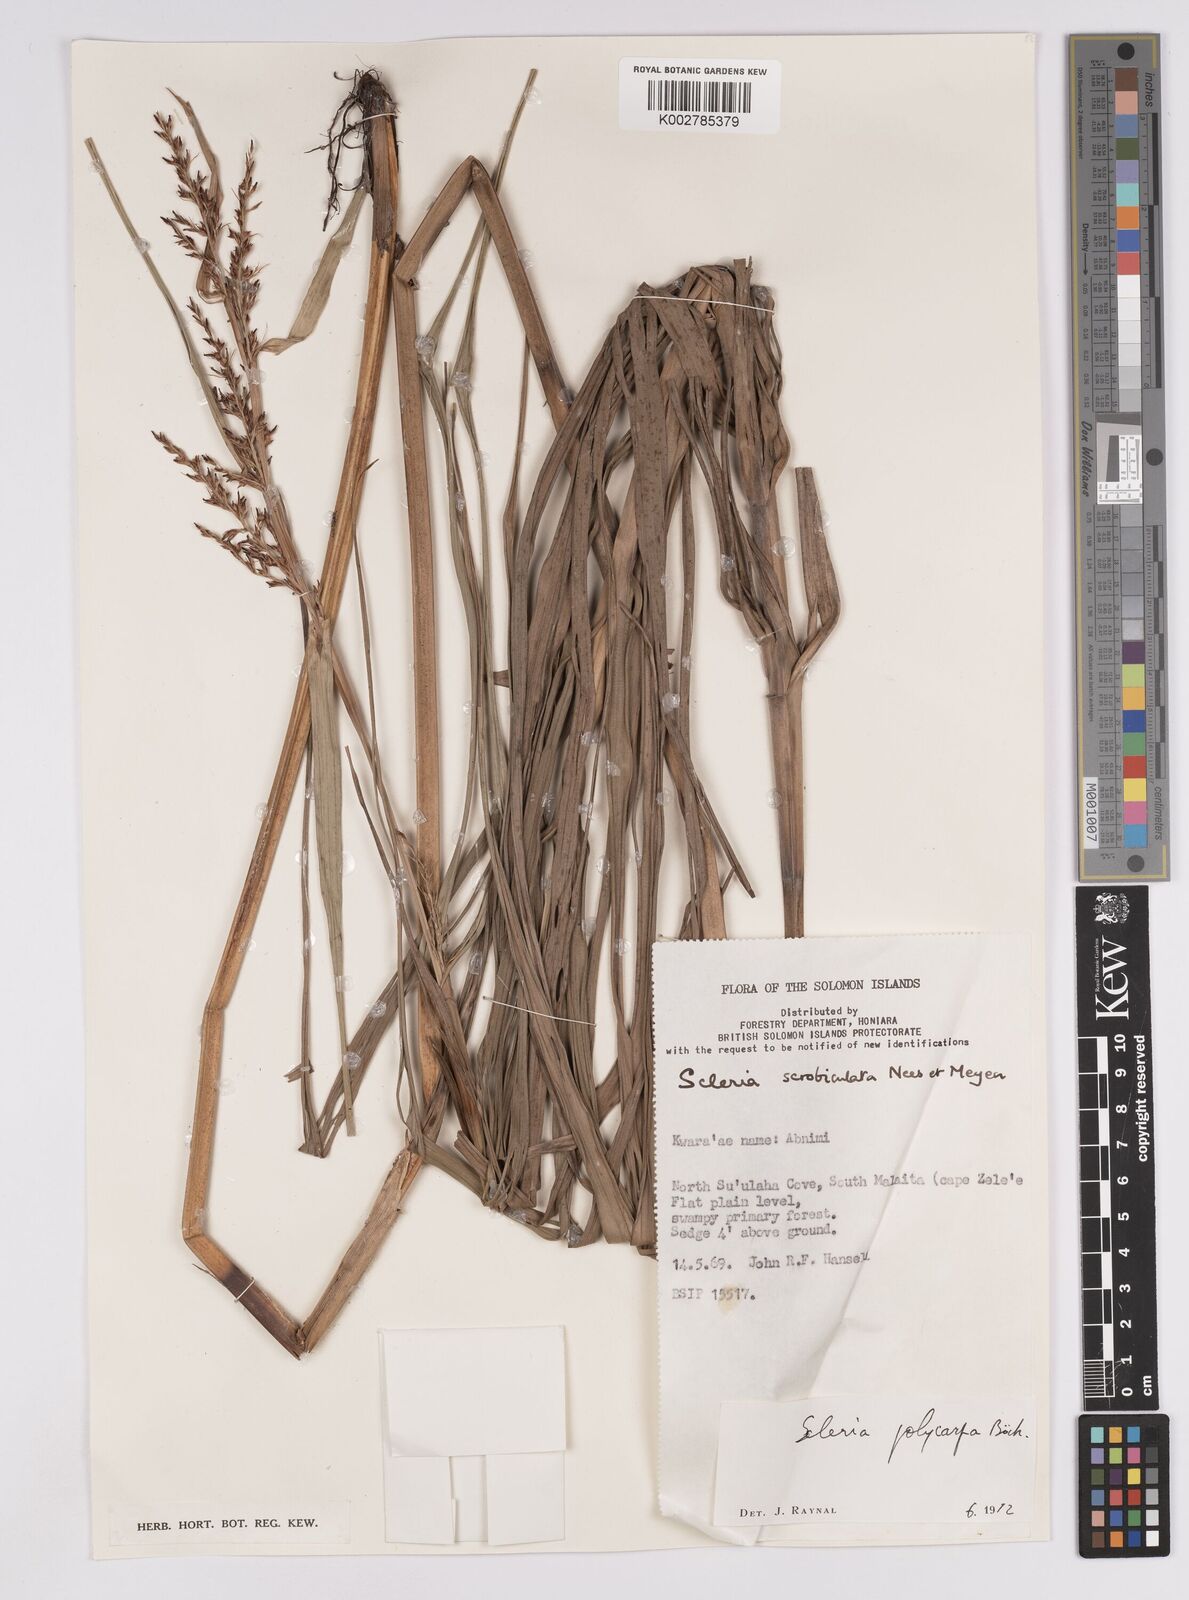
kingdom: Plantae
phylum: Tracheophyta
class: Liliopsida
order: Poales
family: Cyperaceae
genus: Scleria
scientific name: Scleria polycarpa
